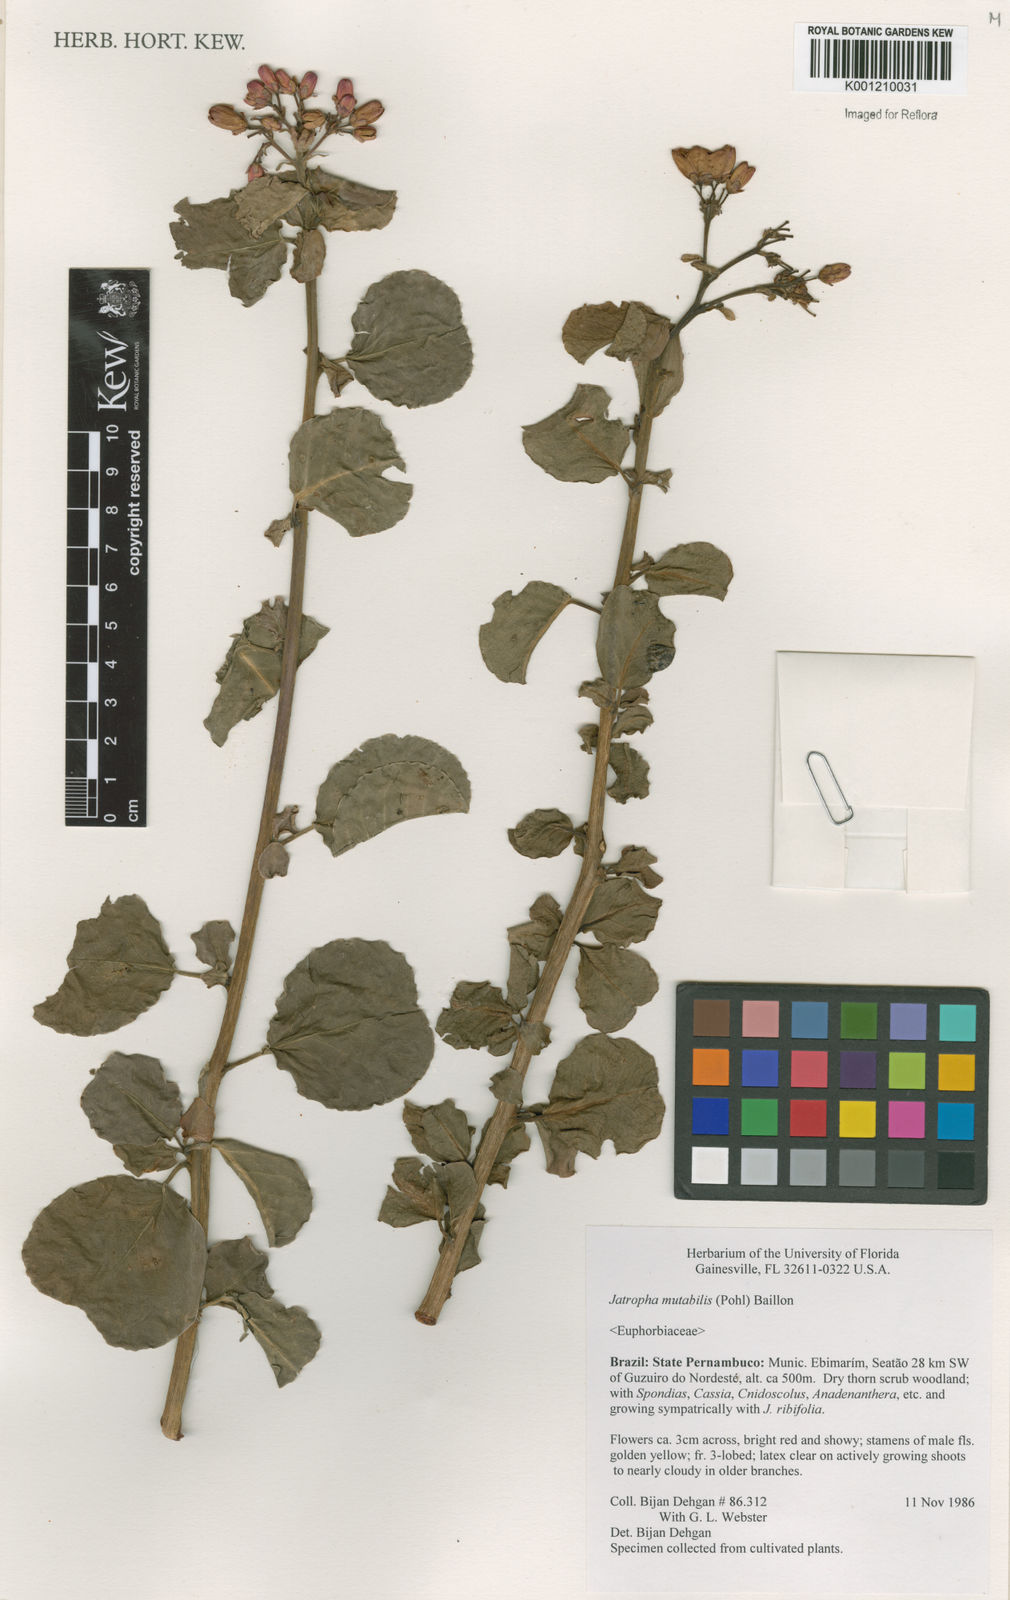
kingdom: Plantae
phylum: Tracheophyta
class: Magnoliopsida
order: Malpighiales
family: Euphorbiaceae
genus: Jatropha
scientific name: Jatropha mutabilis
